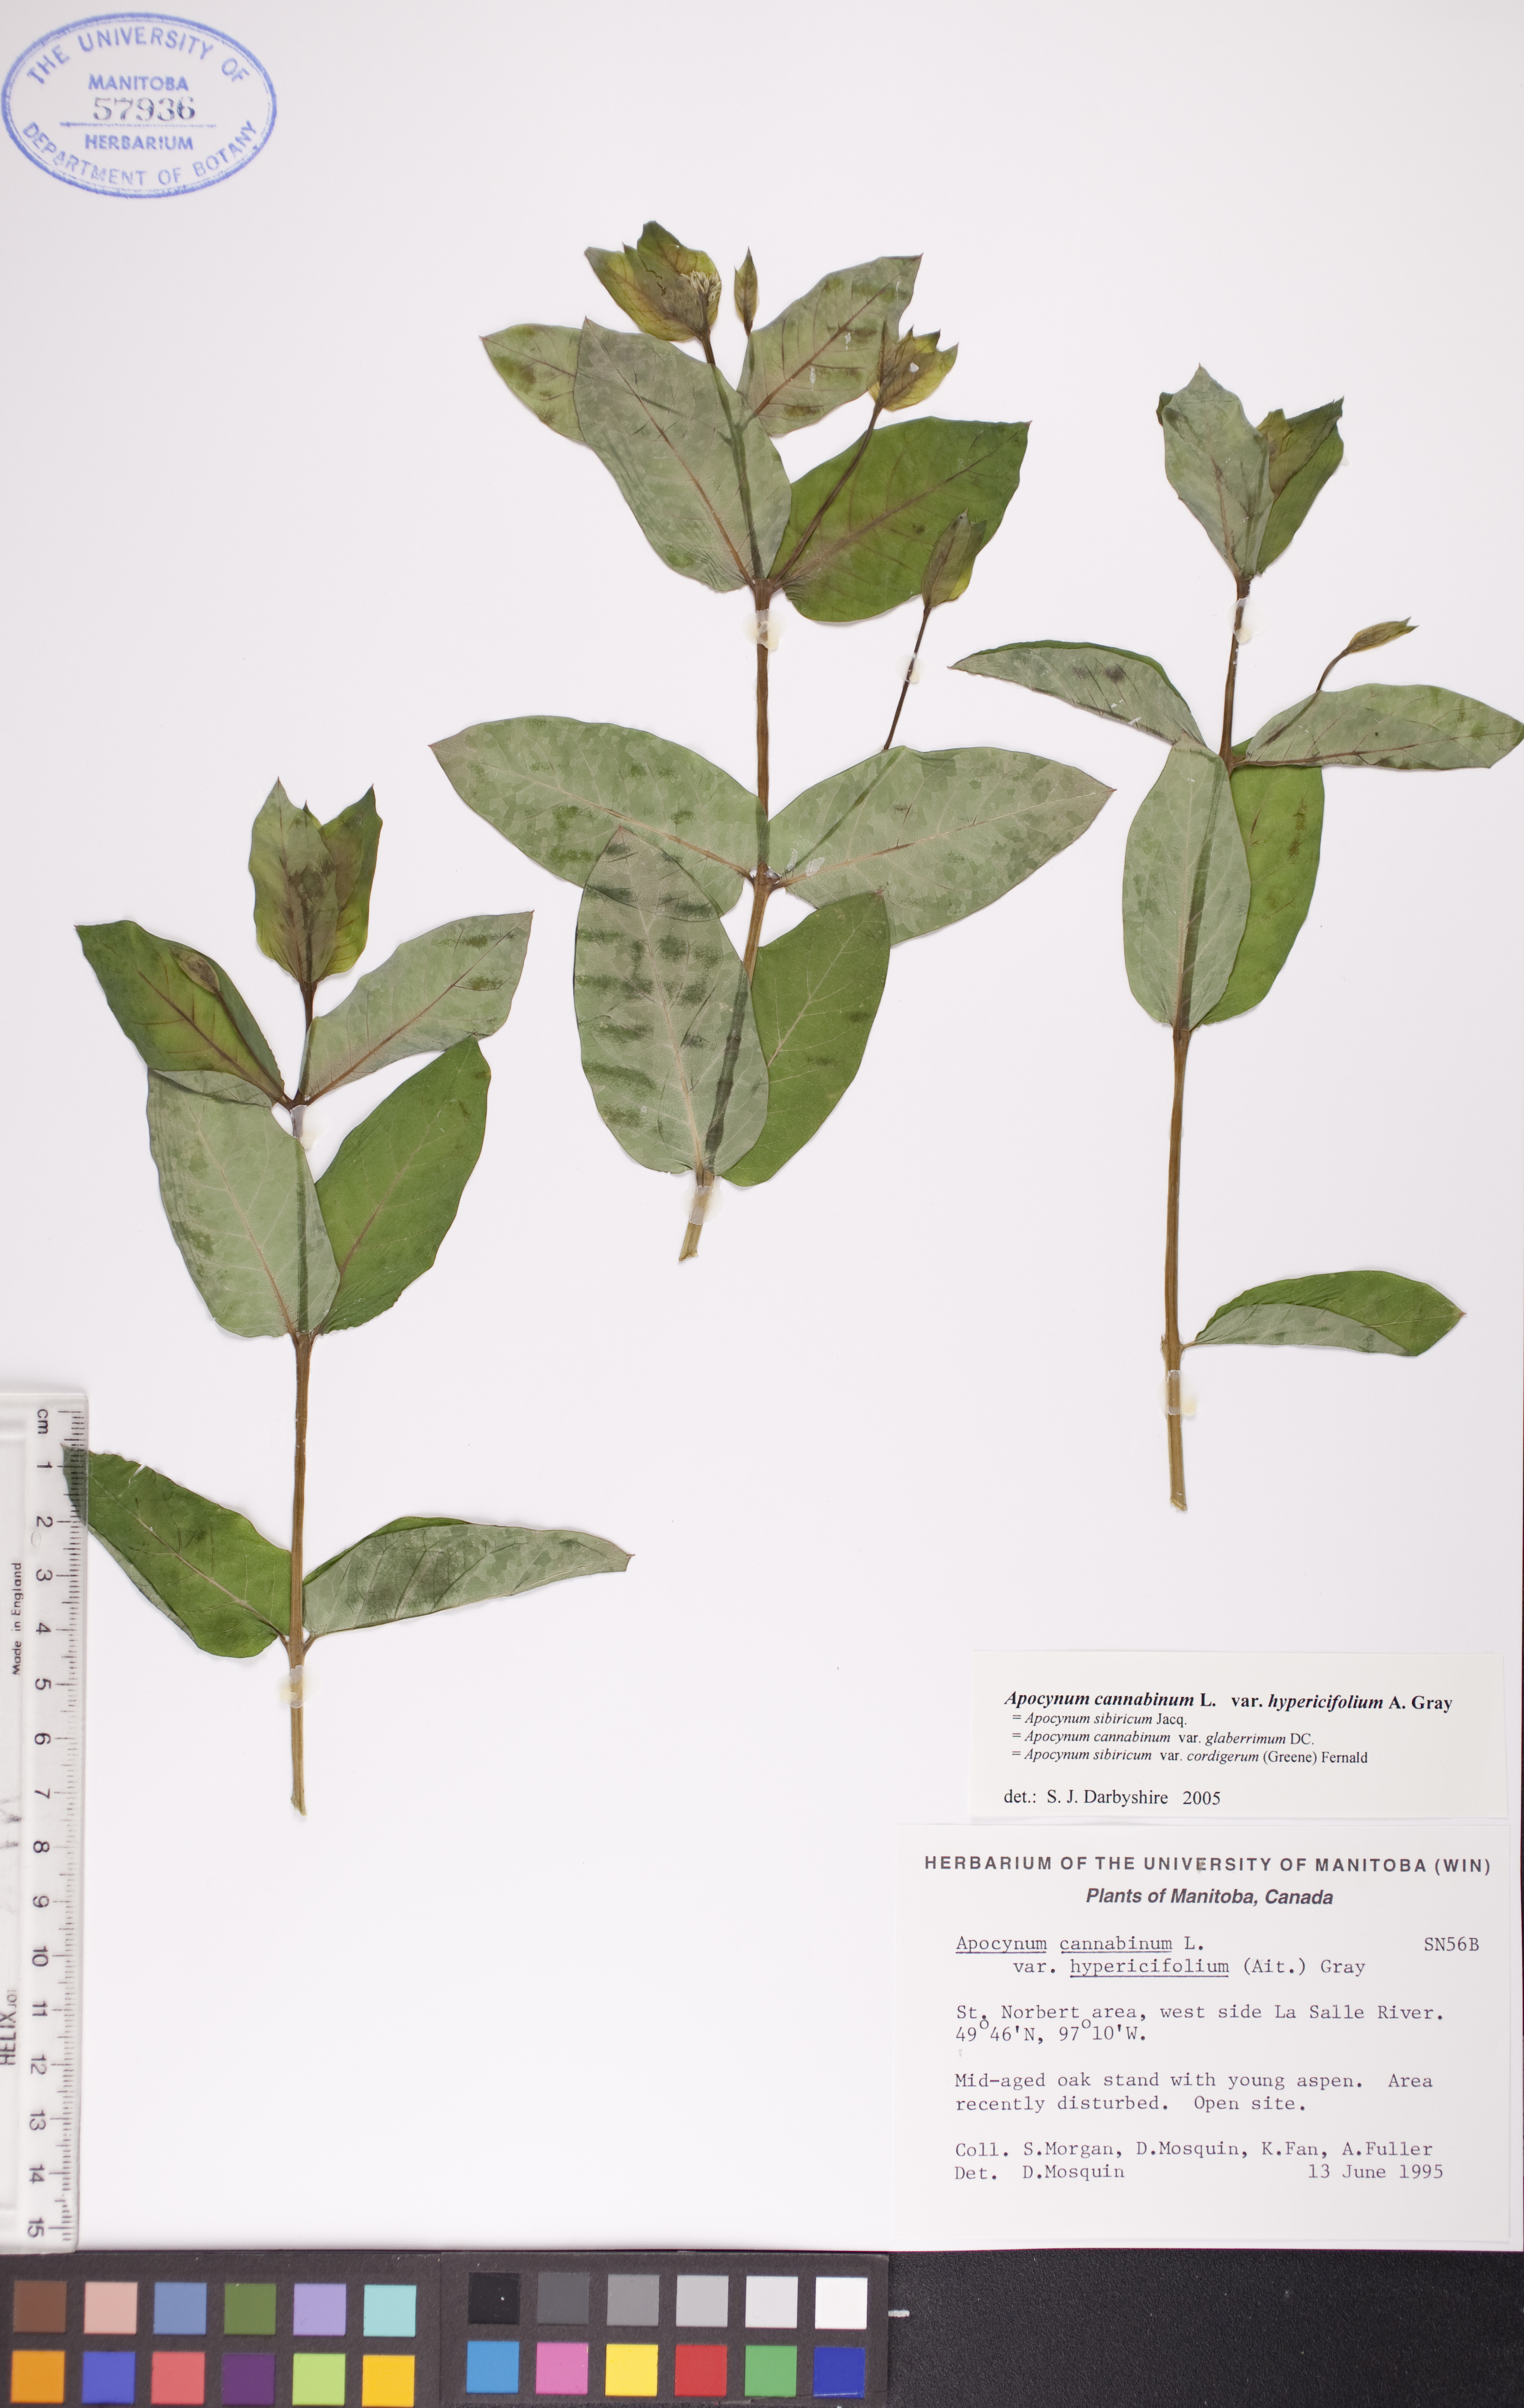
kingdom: Plantae
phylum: Tracheophyta
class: Magnoliopsida
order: Gentianales
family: Apocynaceae
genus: Apocynum
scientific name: Apocynum cannabinum
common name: Hemp dogbane
